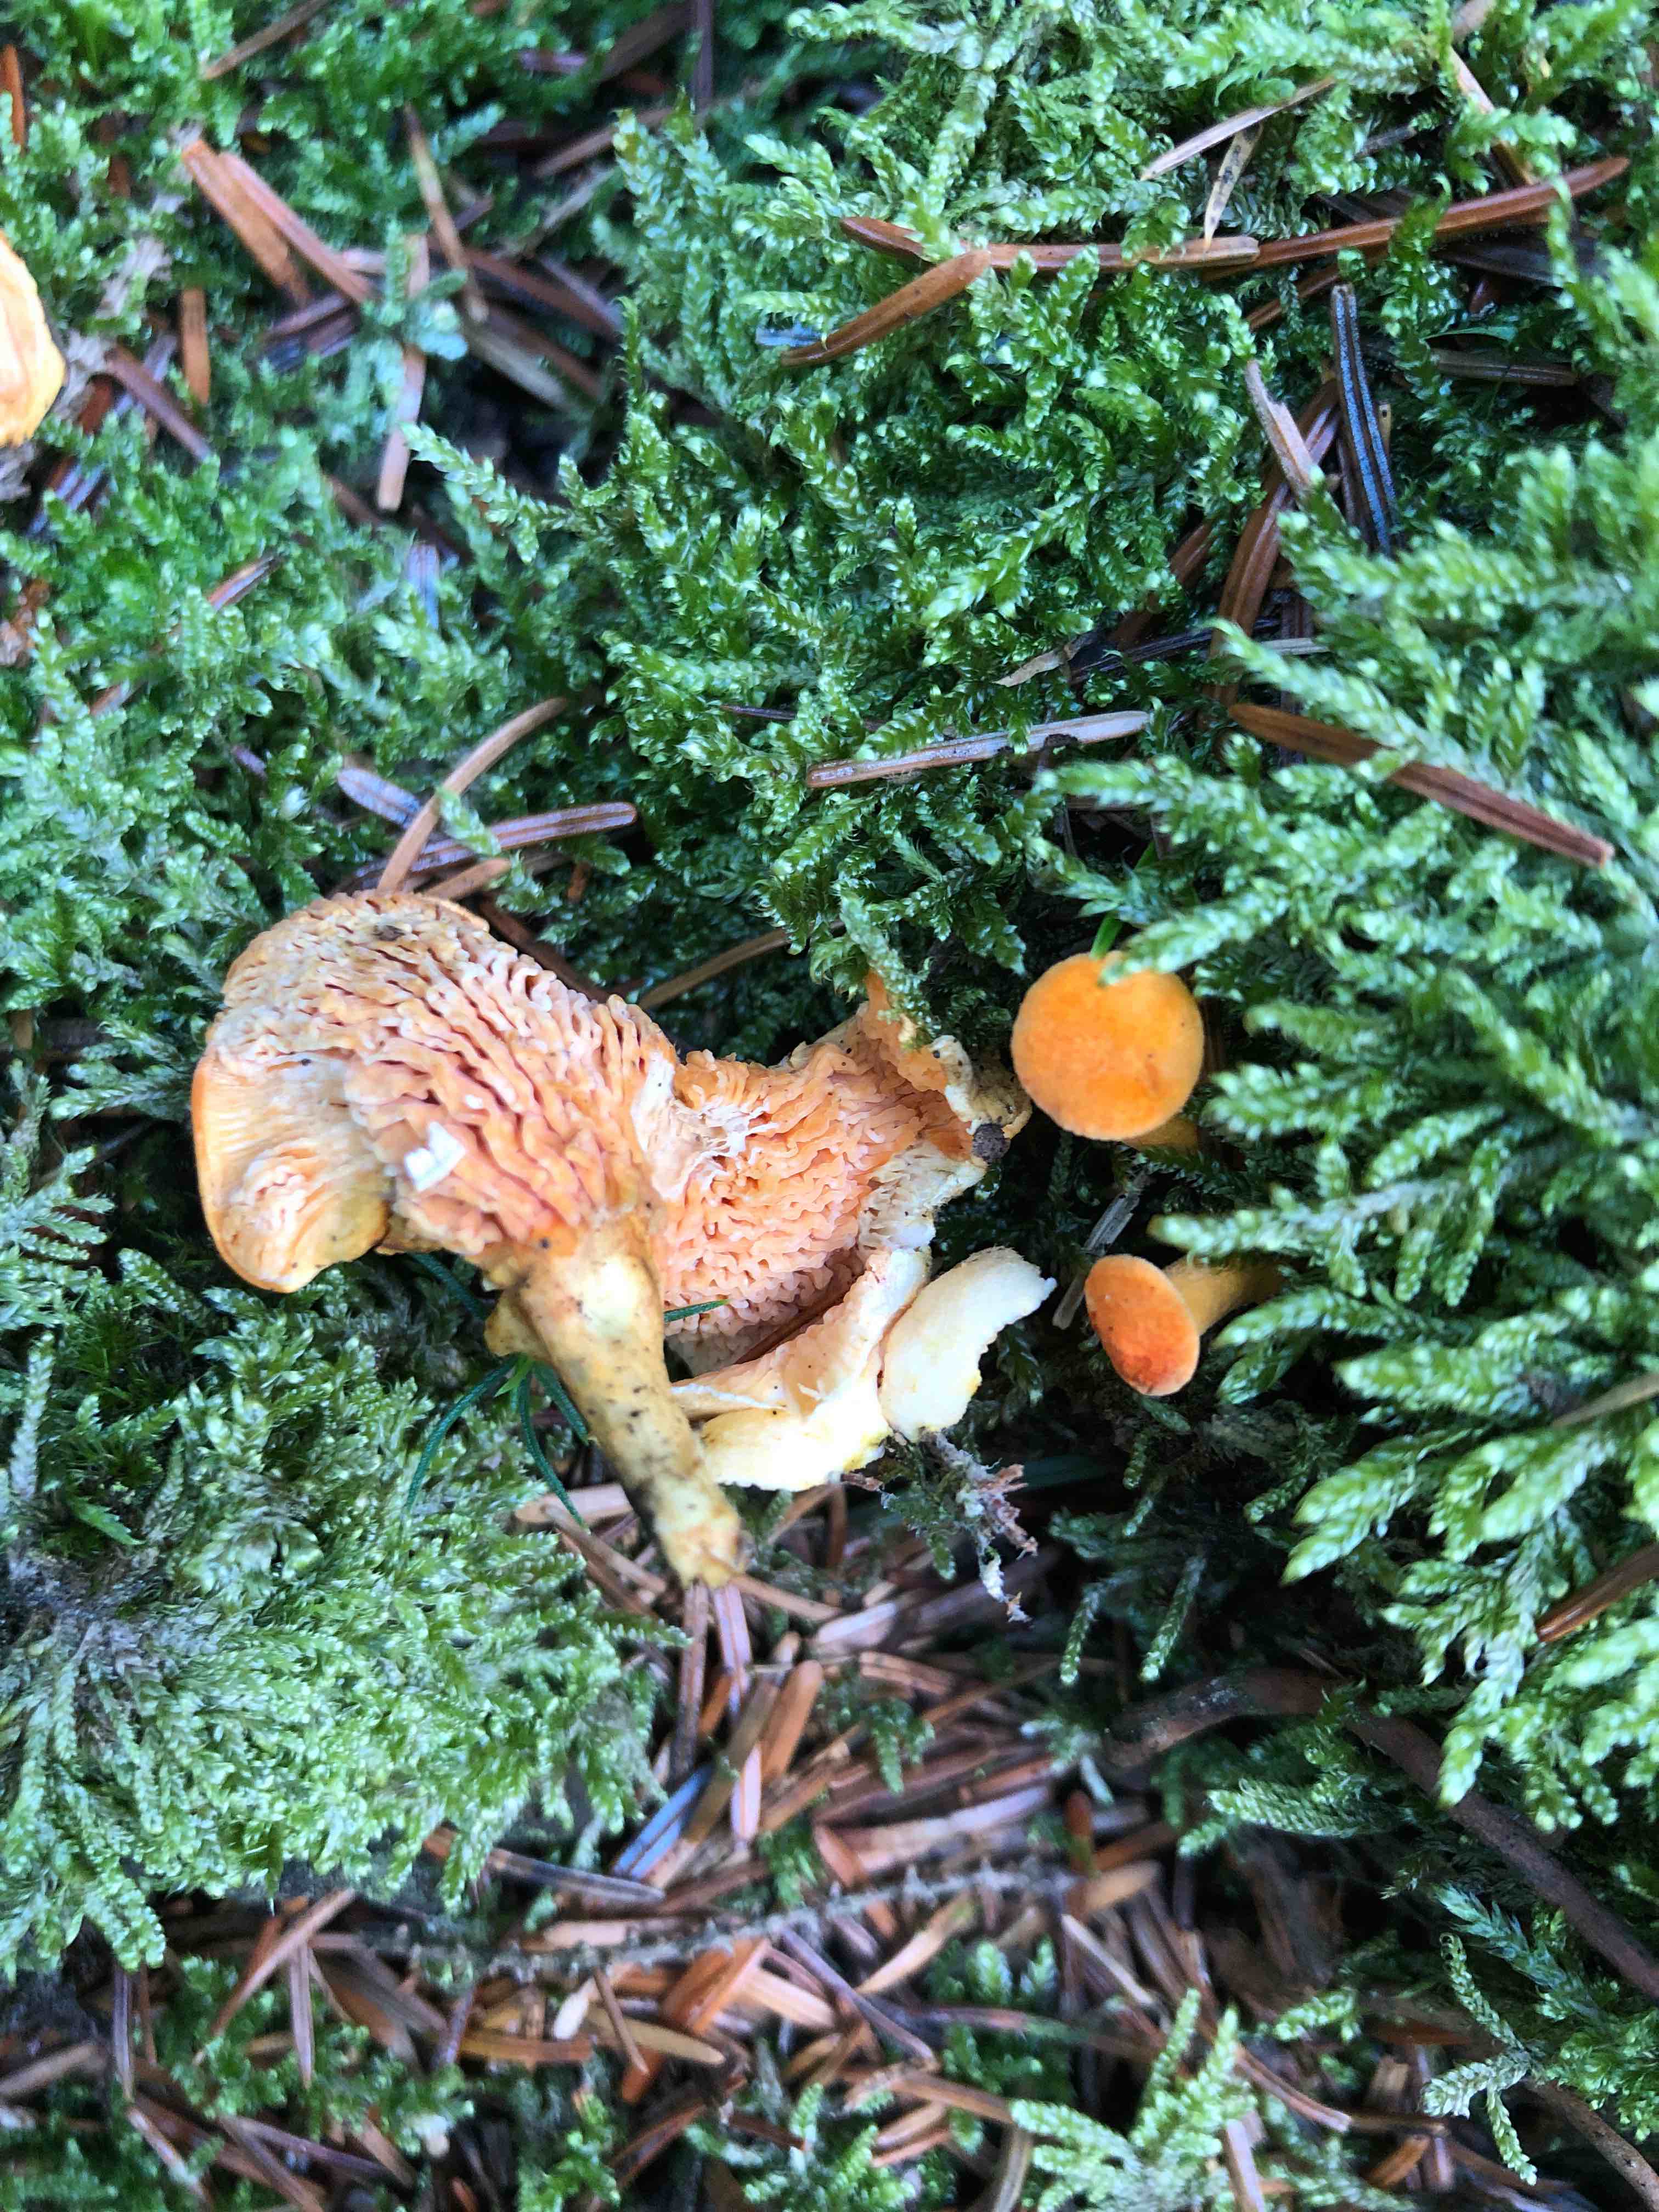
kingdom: Fungi
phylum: Basidiomycota
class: Agaricomycetes
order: Boletales
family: Hygrophoropsidaceae
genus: Hygrophoropsis
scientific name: Hygrophoropsis aurantiaca
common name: almindelig orangekantarel
